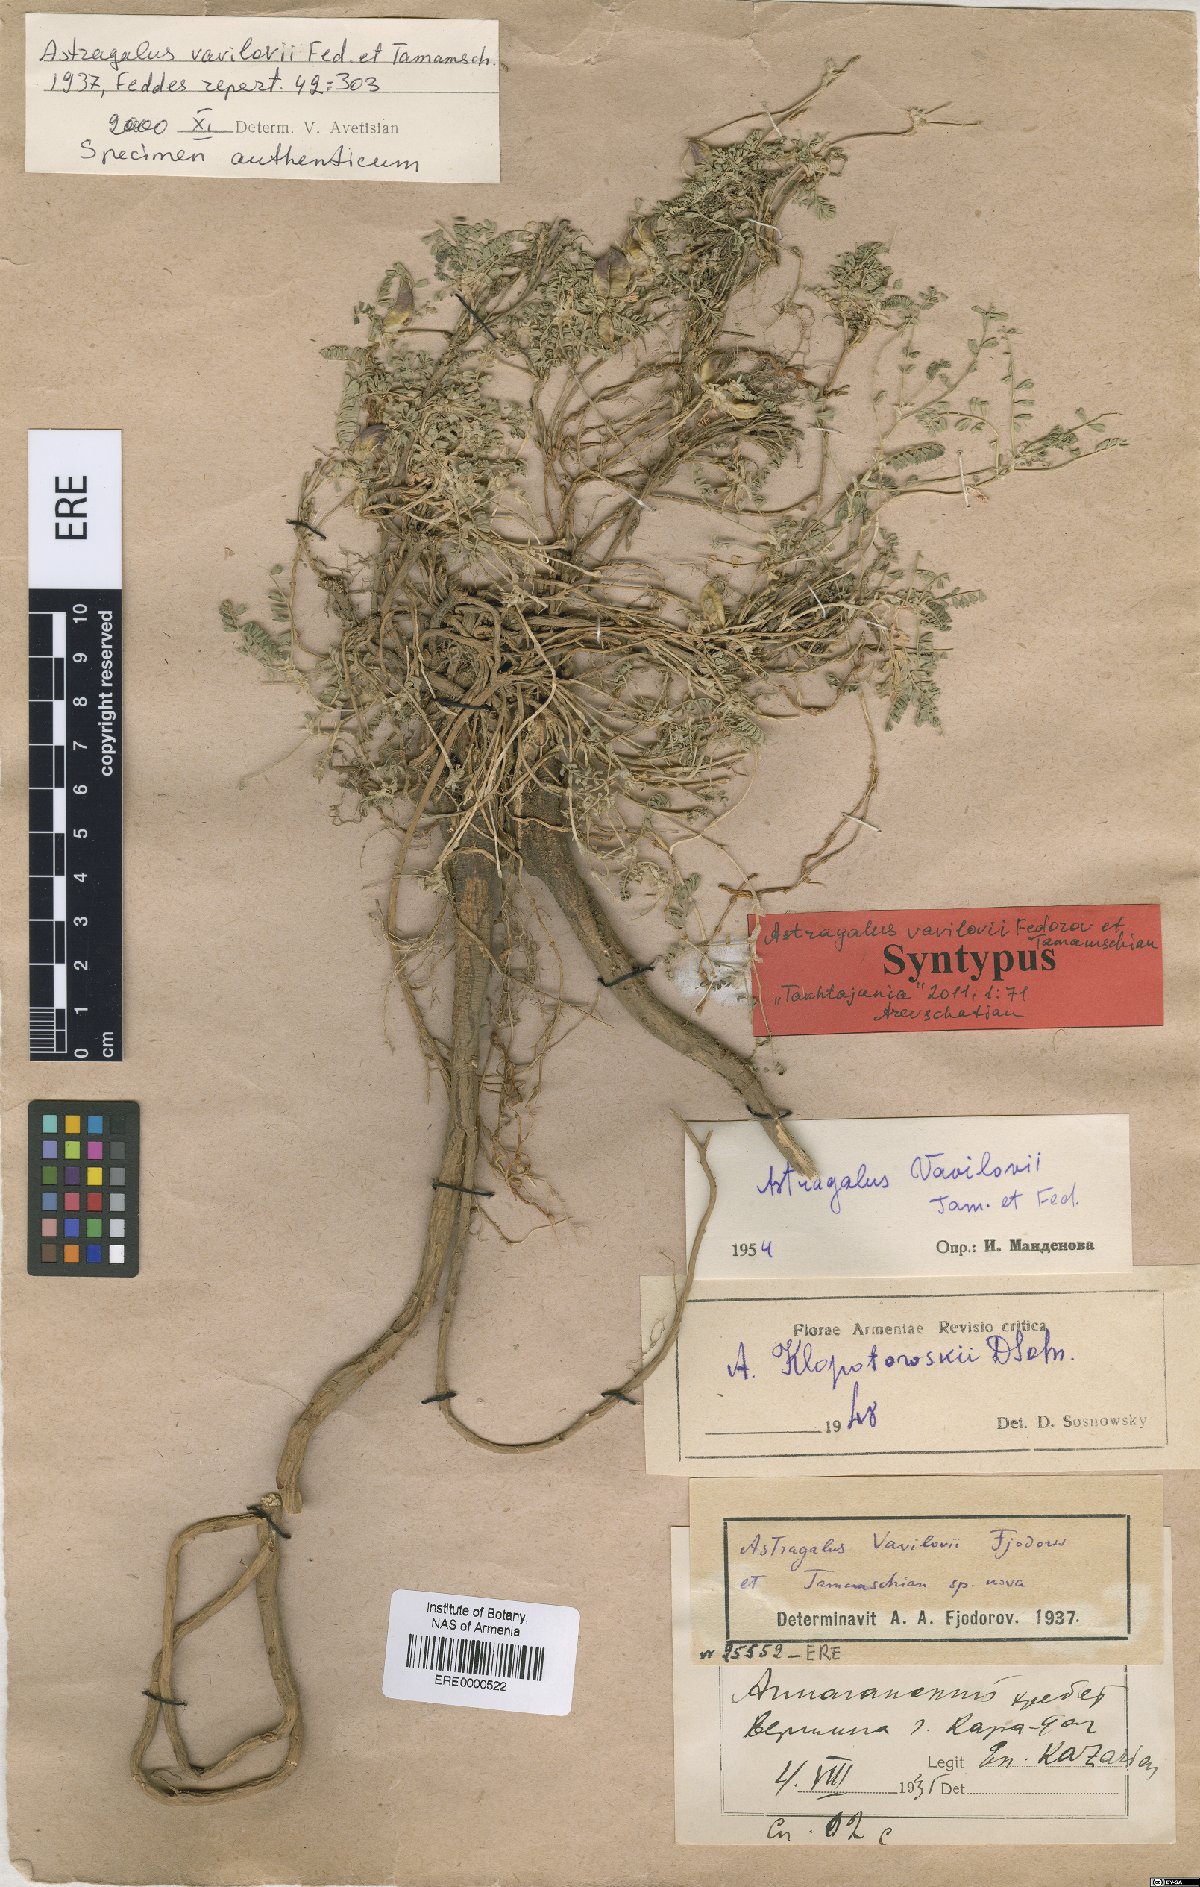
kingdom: Plantae
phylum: Tracheophyta
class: Magnoliopsida
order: Fabales
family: Fabaceae
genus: Astragalus
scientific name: Astragalus vavilovii
